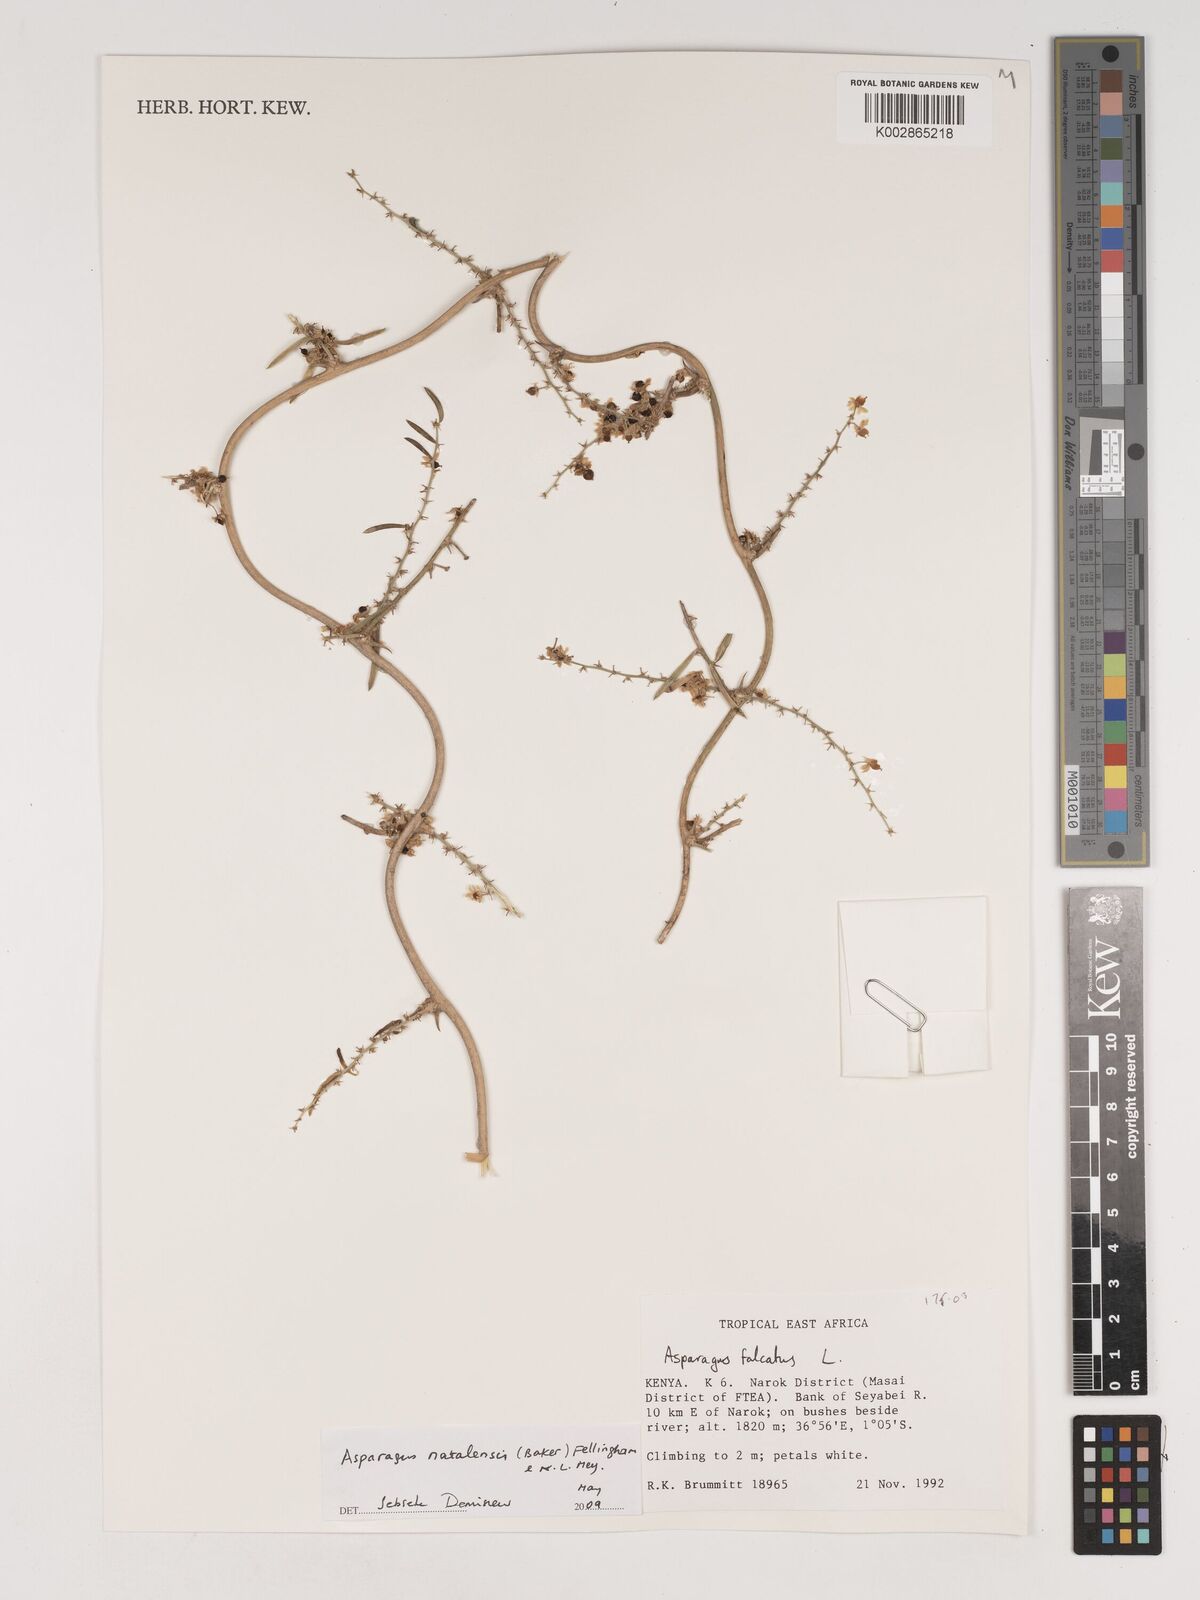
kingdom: Plantae
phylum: Tracheophyta
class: Liliopsida
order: Asparagales
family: Asparagaceae
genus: Asparagus
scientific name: Asparagus natalensis
